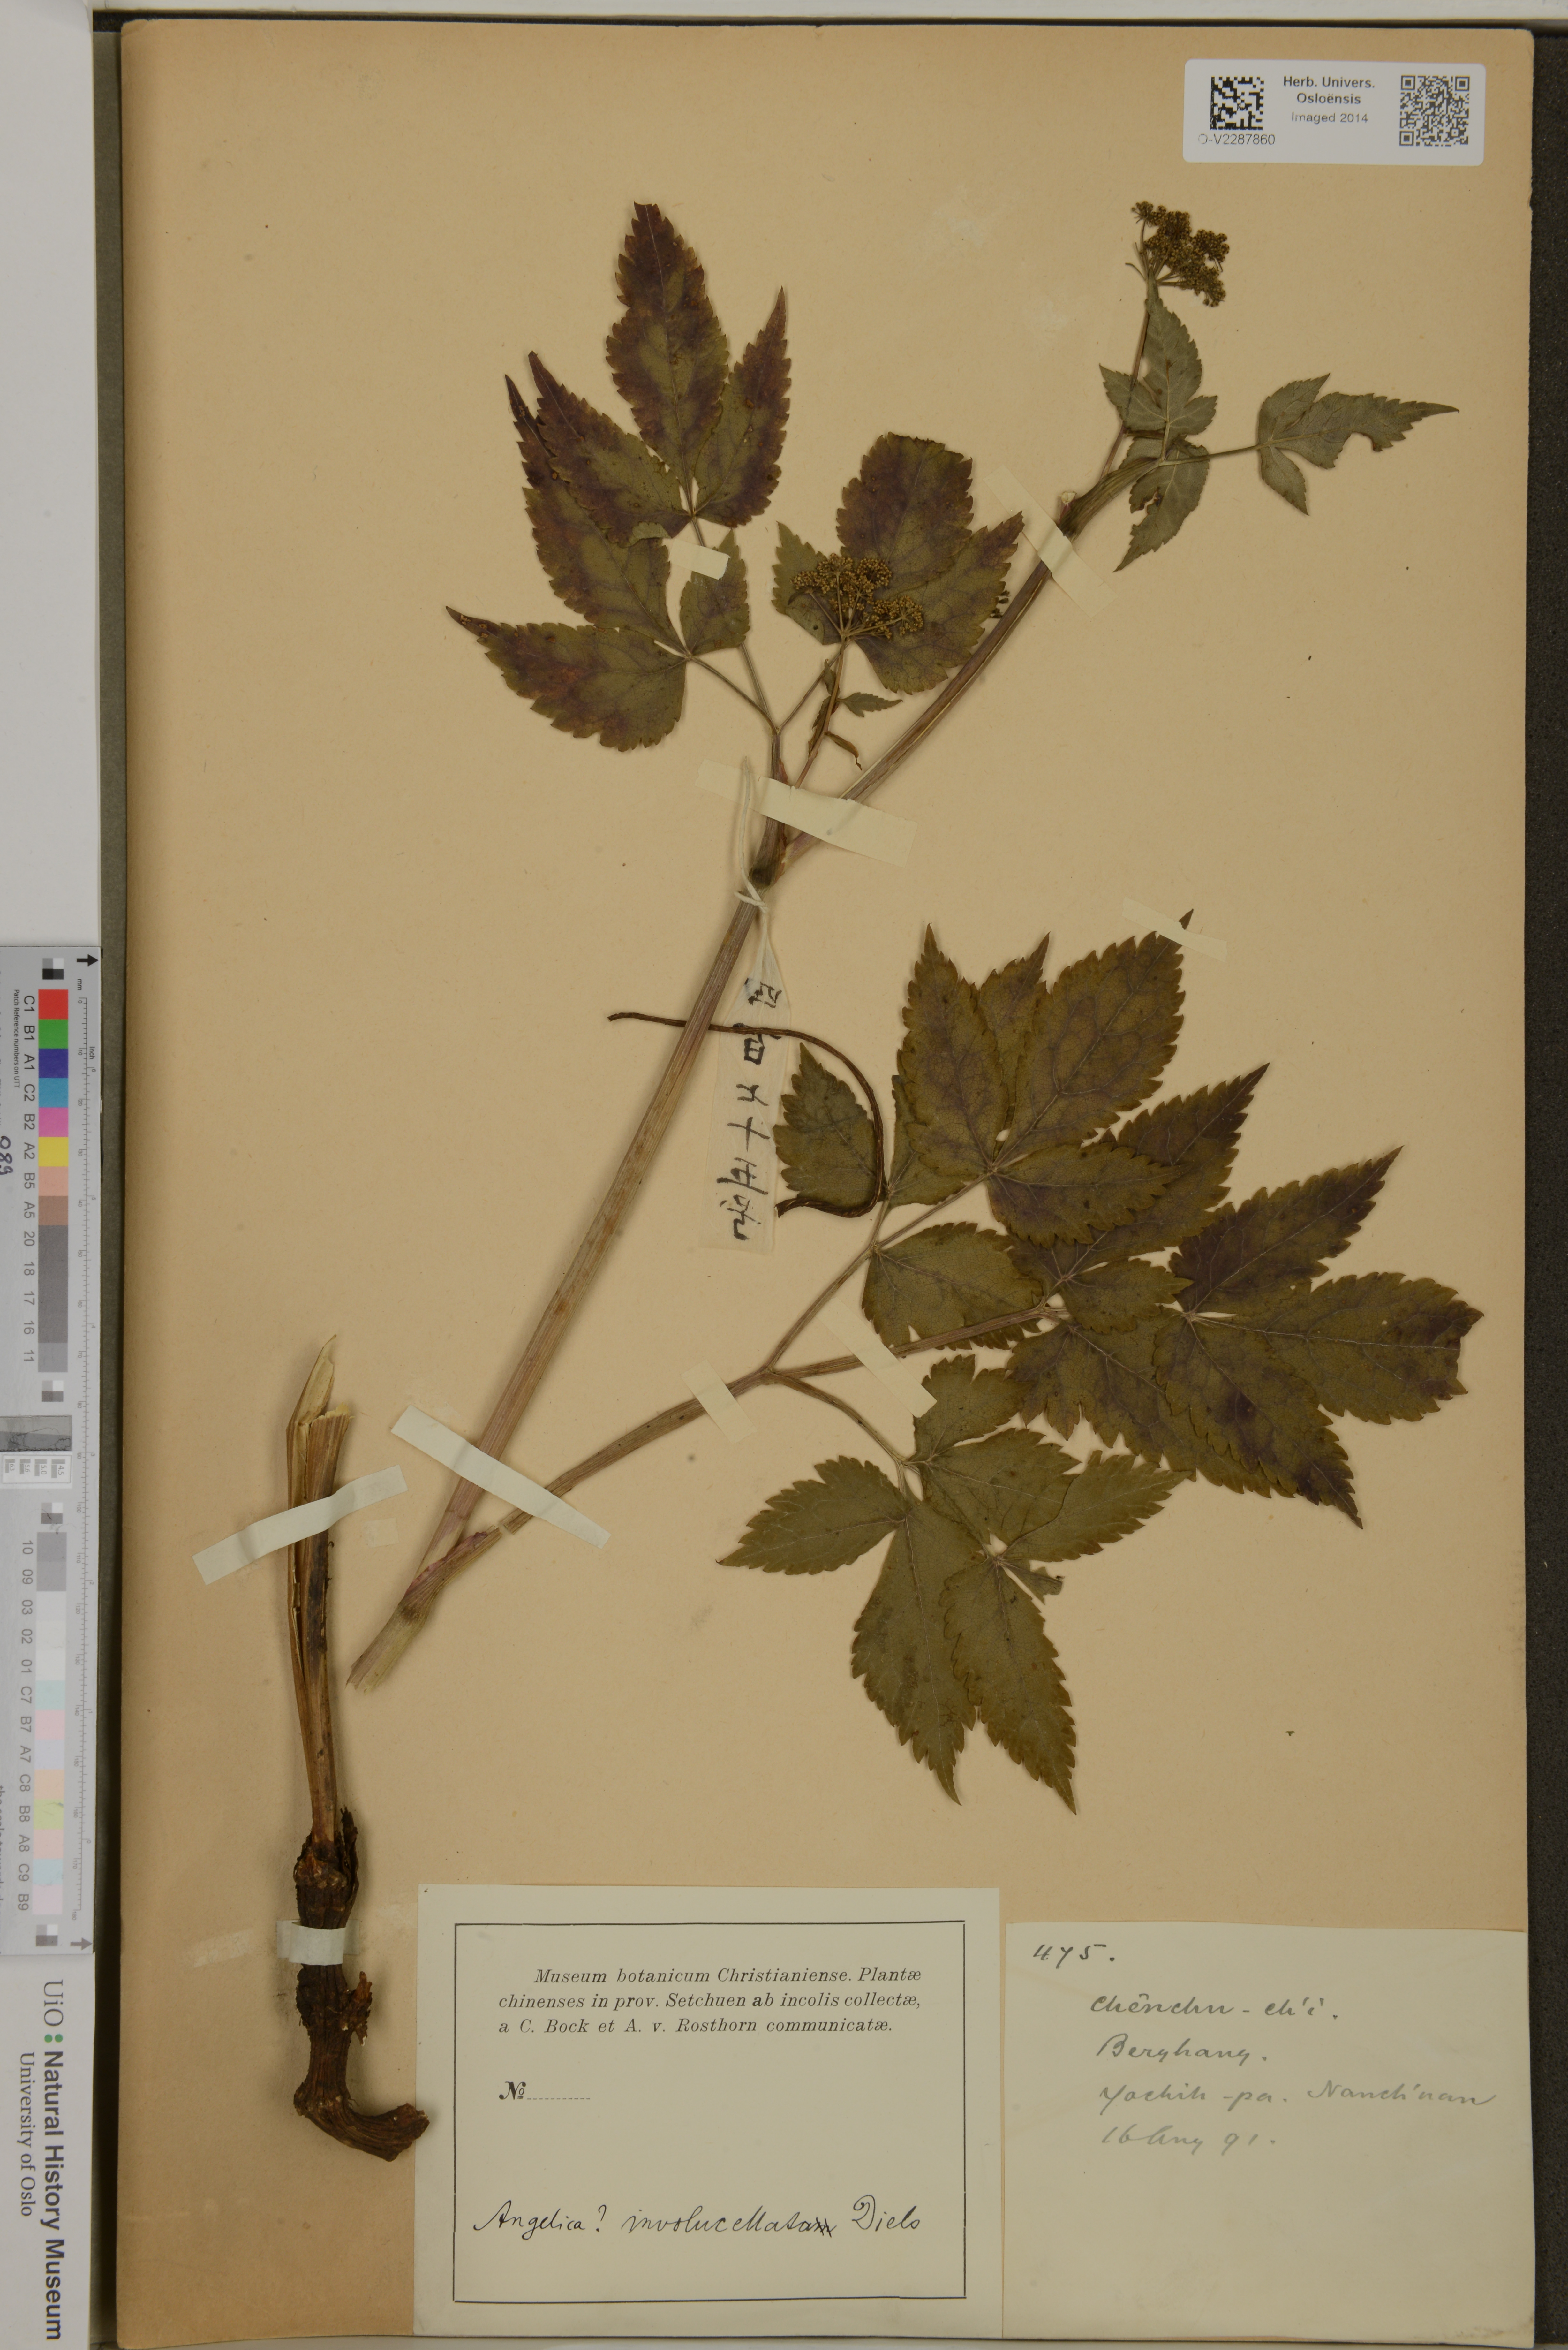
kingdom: Plantae
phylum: Tracheophyta
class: Magnoliopsida
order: Apiales
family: Apiaceae
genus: Melanosciadium
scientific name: Melanosciadium pimpinelloideum
